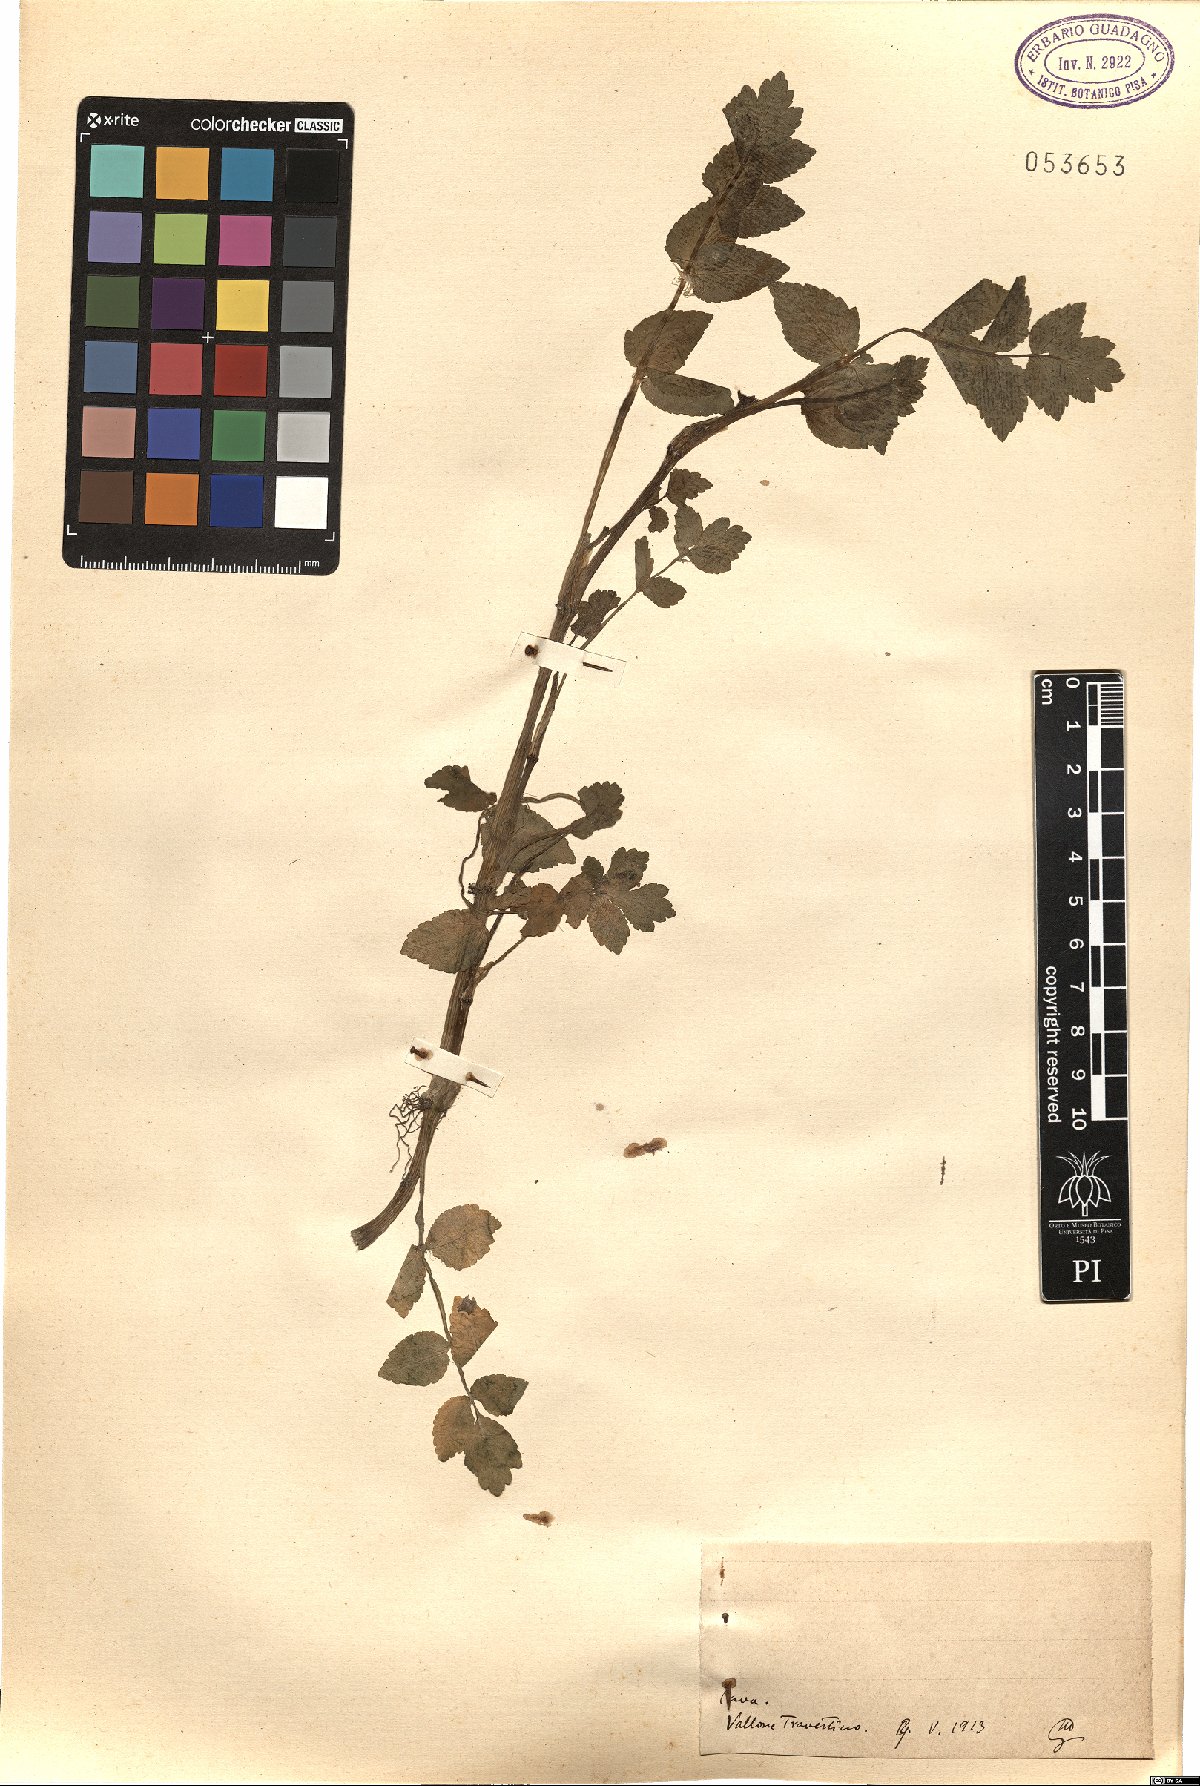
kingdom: Plantae
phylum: Tracheophyta
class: Magnoliopsida
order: Apiales
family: Apiaceae
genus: Helosciadium
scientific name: Helosciadium
